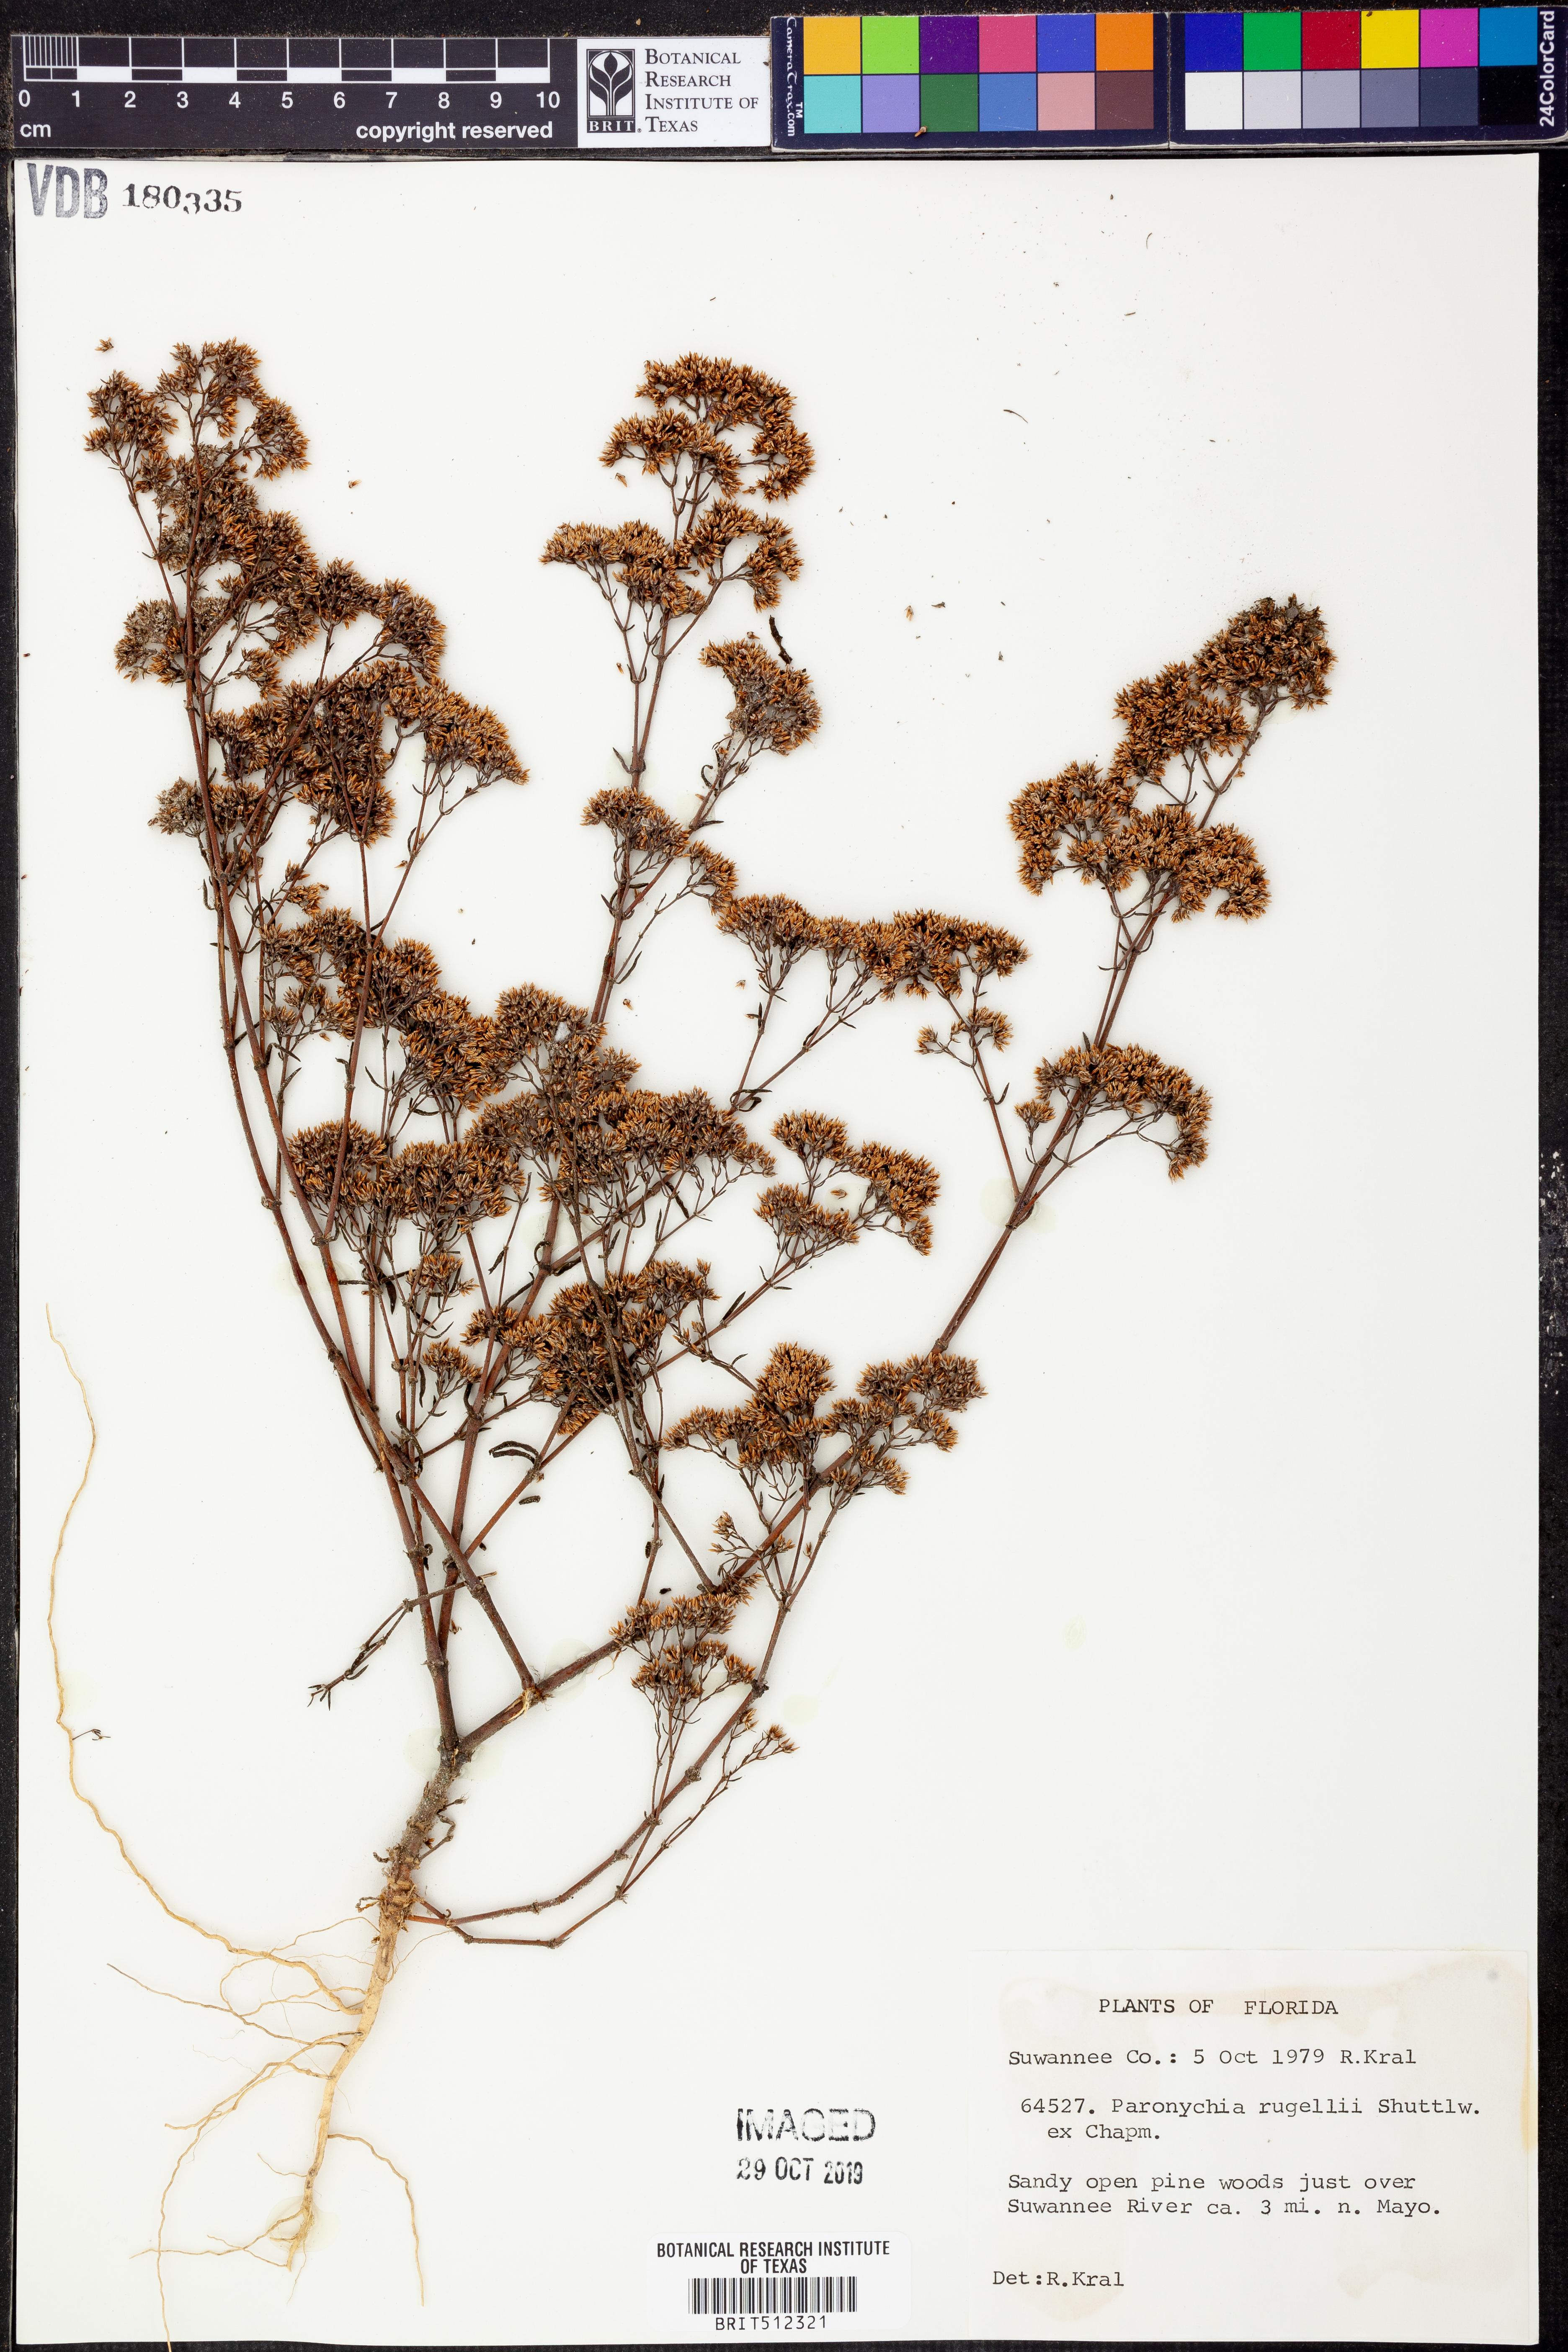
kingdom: Plantae
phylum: Tracheophyta
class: Magnoliopsida
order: Caryophyllales
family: Caryophyllaceae
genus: Paronychia
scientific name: Paronychia rugelii
